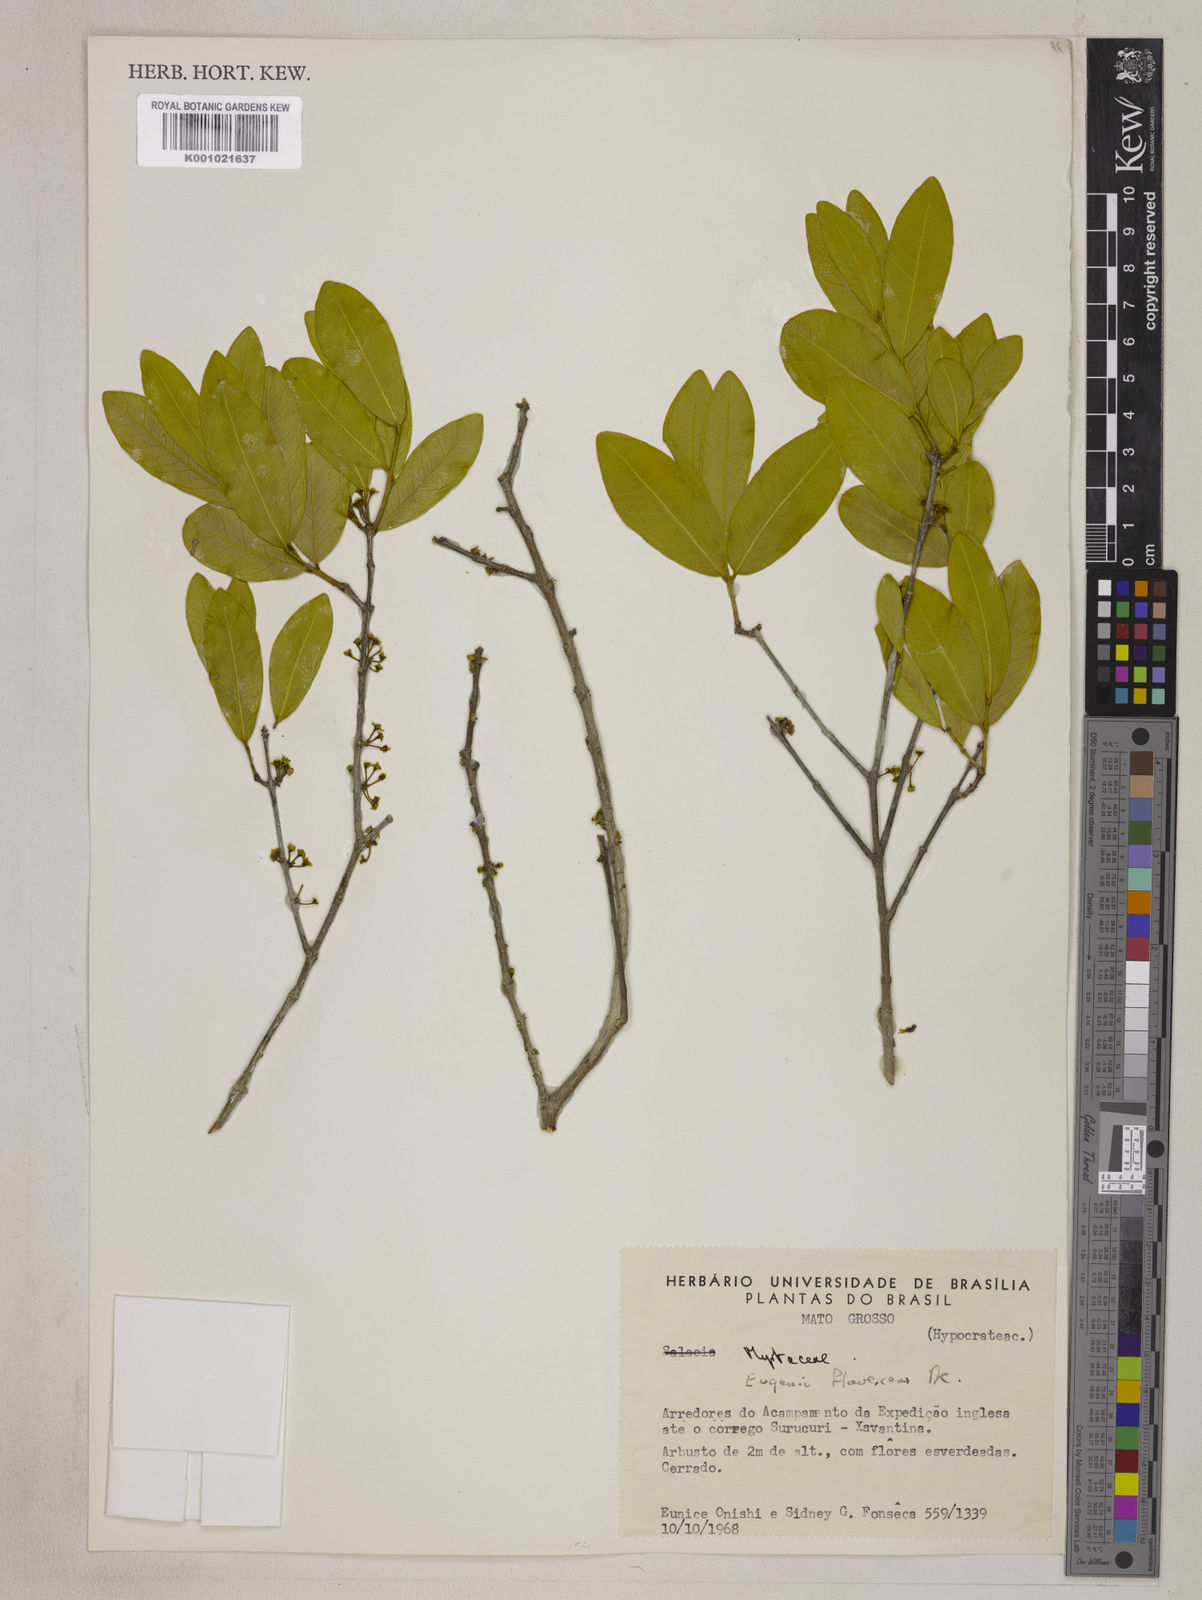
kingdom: Plantae
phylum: Tracheophyta
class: Magnoliopsida
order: Myrtales
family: Myrtaceae
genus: Eugenia
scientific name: Eugenia flavescens
